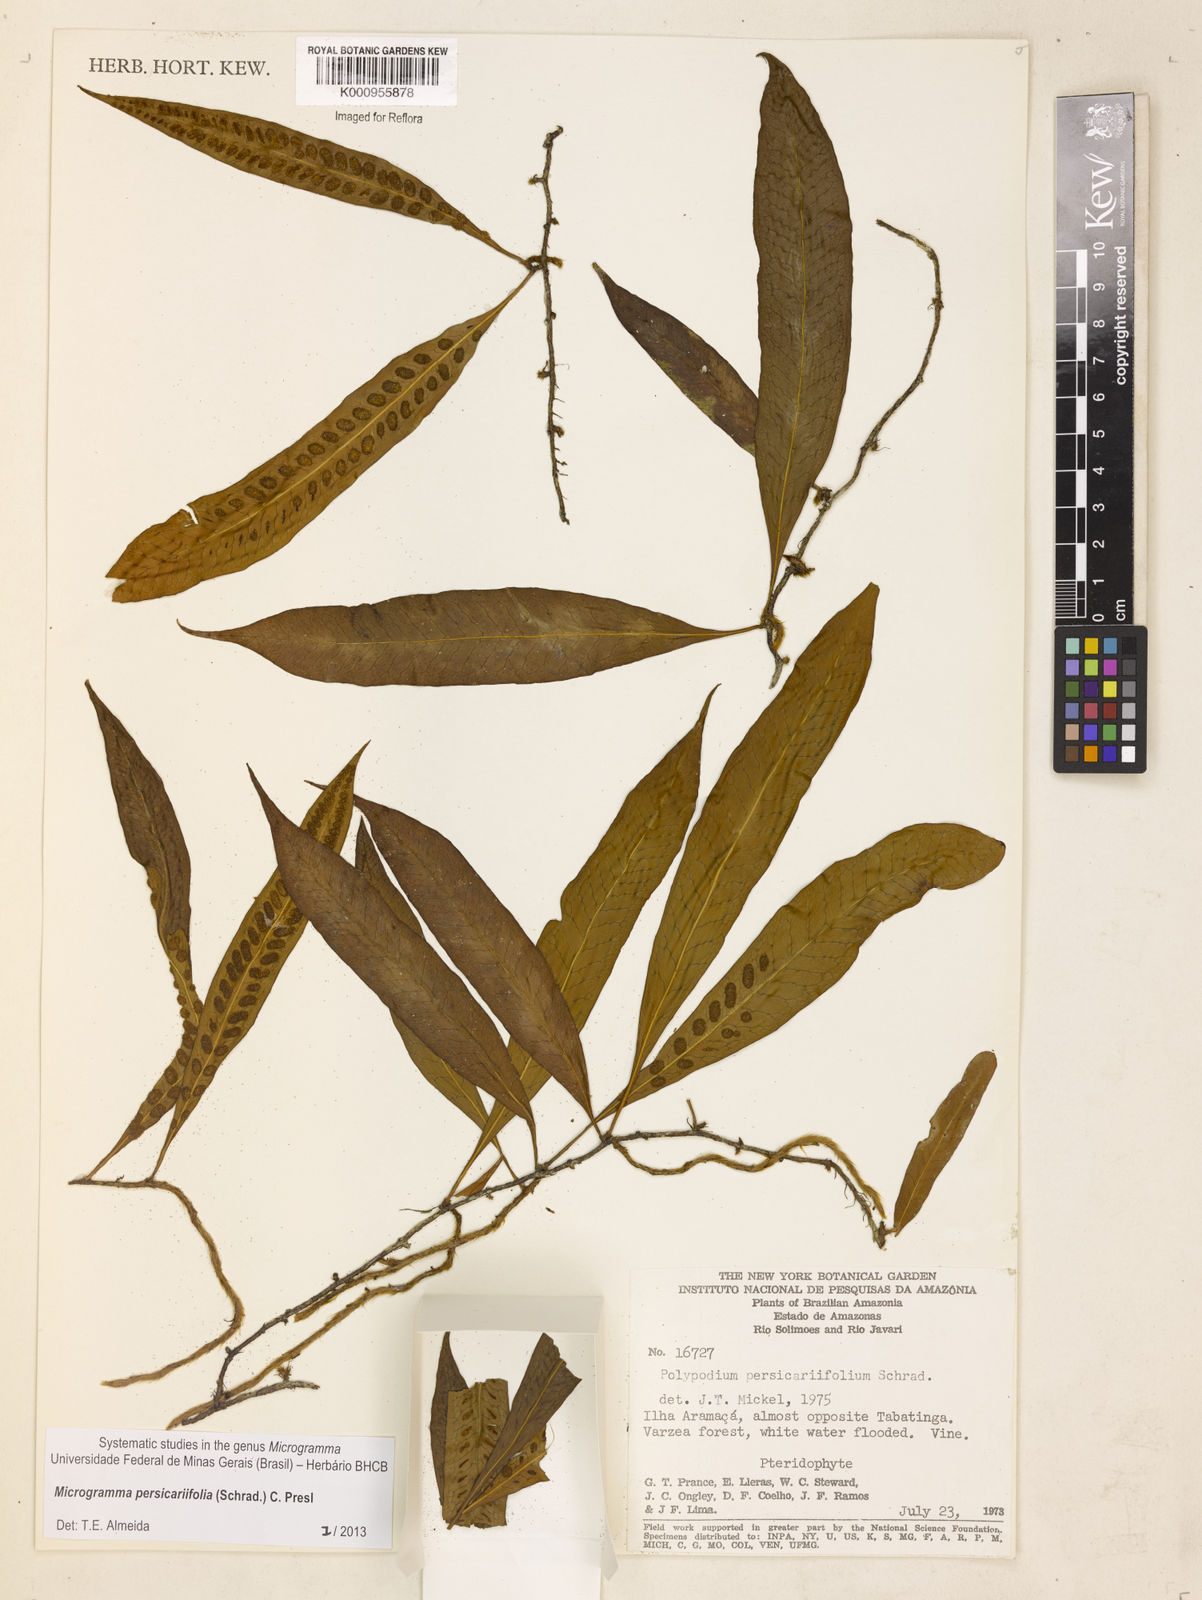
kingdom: Plantae
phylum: Tracheophyta
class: Polypodiopsida
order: Polypodiales
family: Polypodiaceae
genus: Microgramma
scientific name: Microgramma persicariifolia
